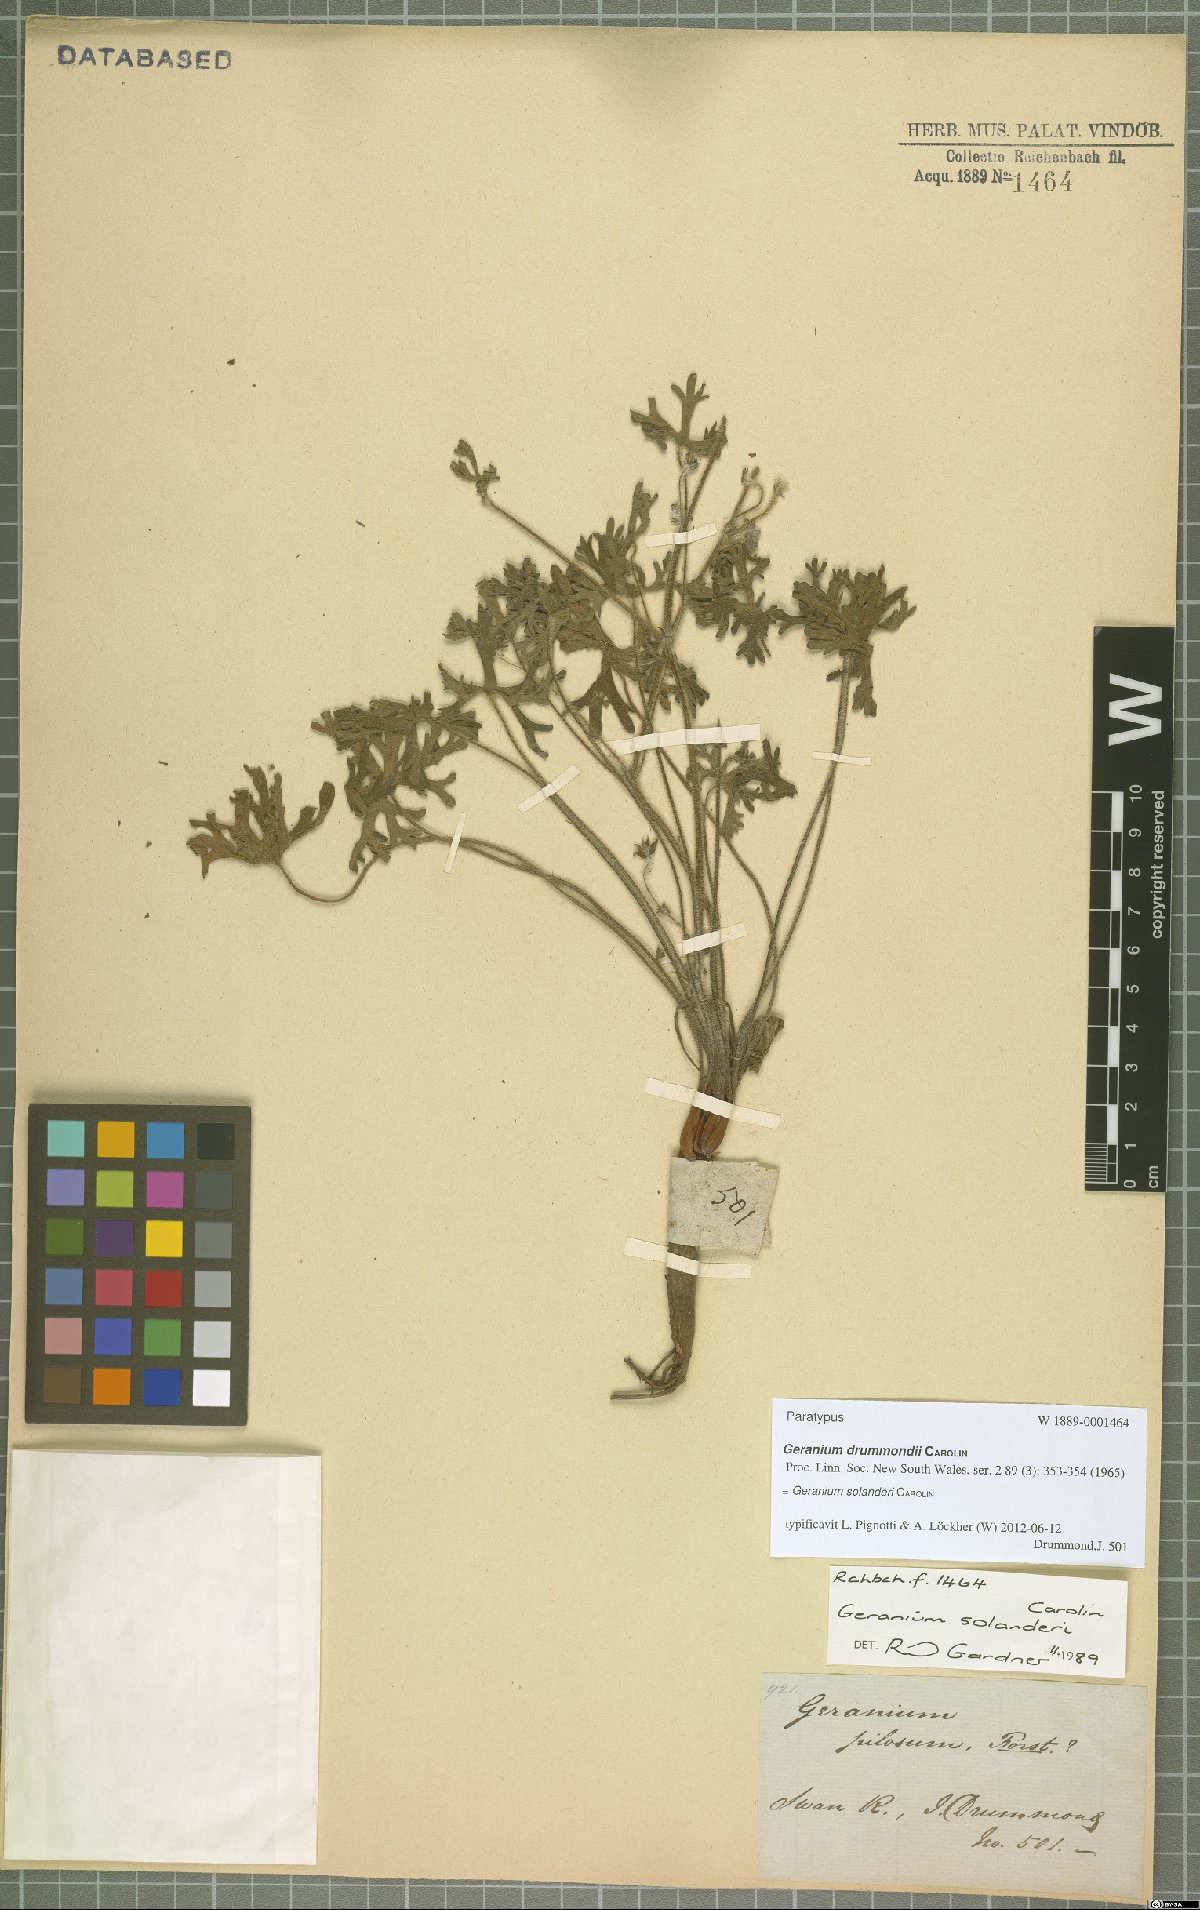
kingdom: Plantae
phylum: Tracheophyta
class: Magnoliopsida
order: Geraniales
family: Geraniaceae
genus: Geranium
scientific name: Geranium solanderi
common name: Solander's geranium
